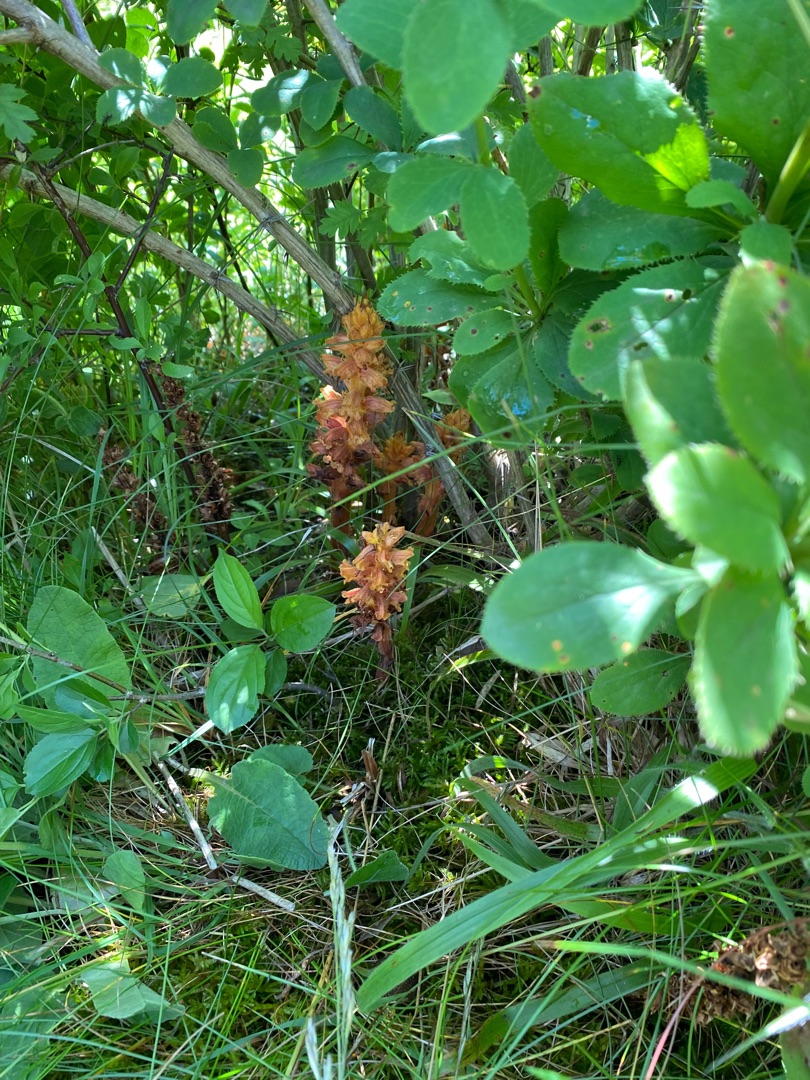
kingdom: Plantae
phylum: Tracheophyta
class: Magnoliopsida
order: Lamiales
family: Orobanchaceae
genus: Orobanche
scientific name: Orobanche lucorum
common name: Berberis-gyvelkvæler
